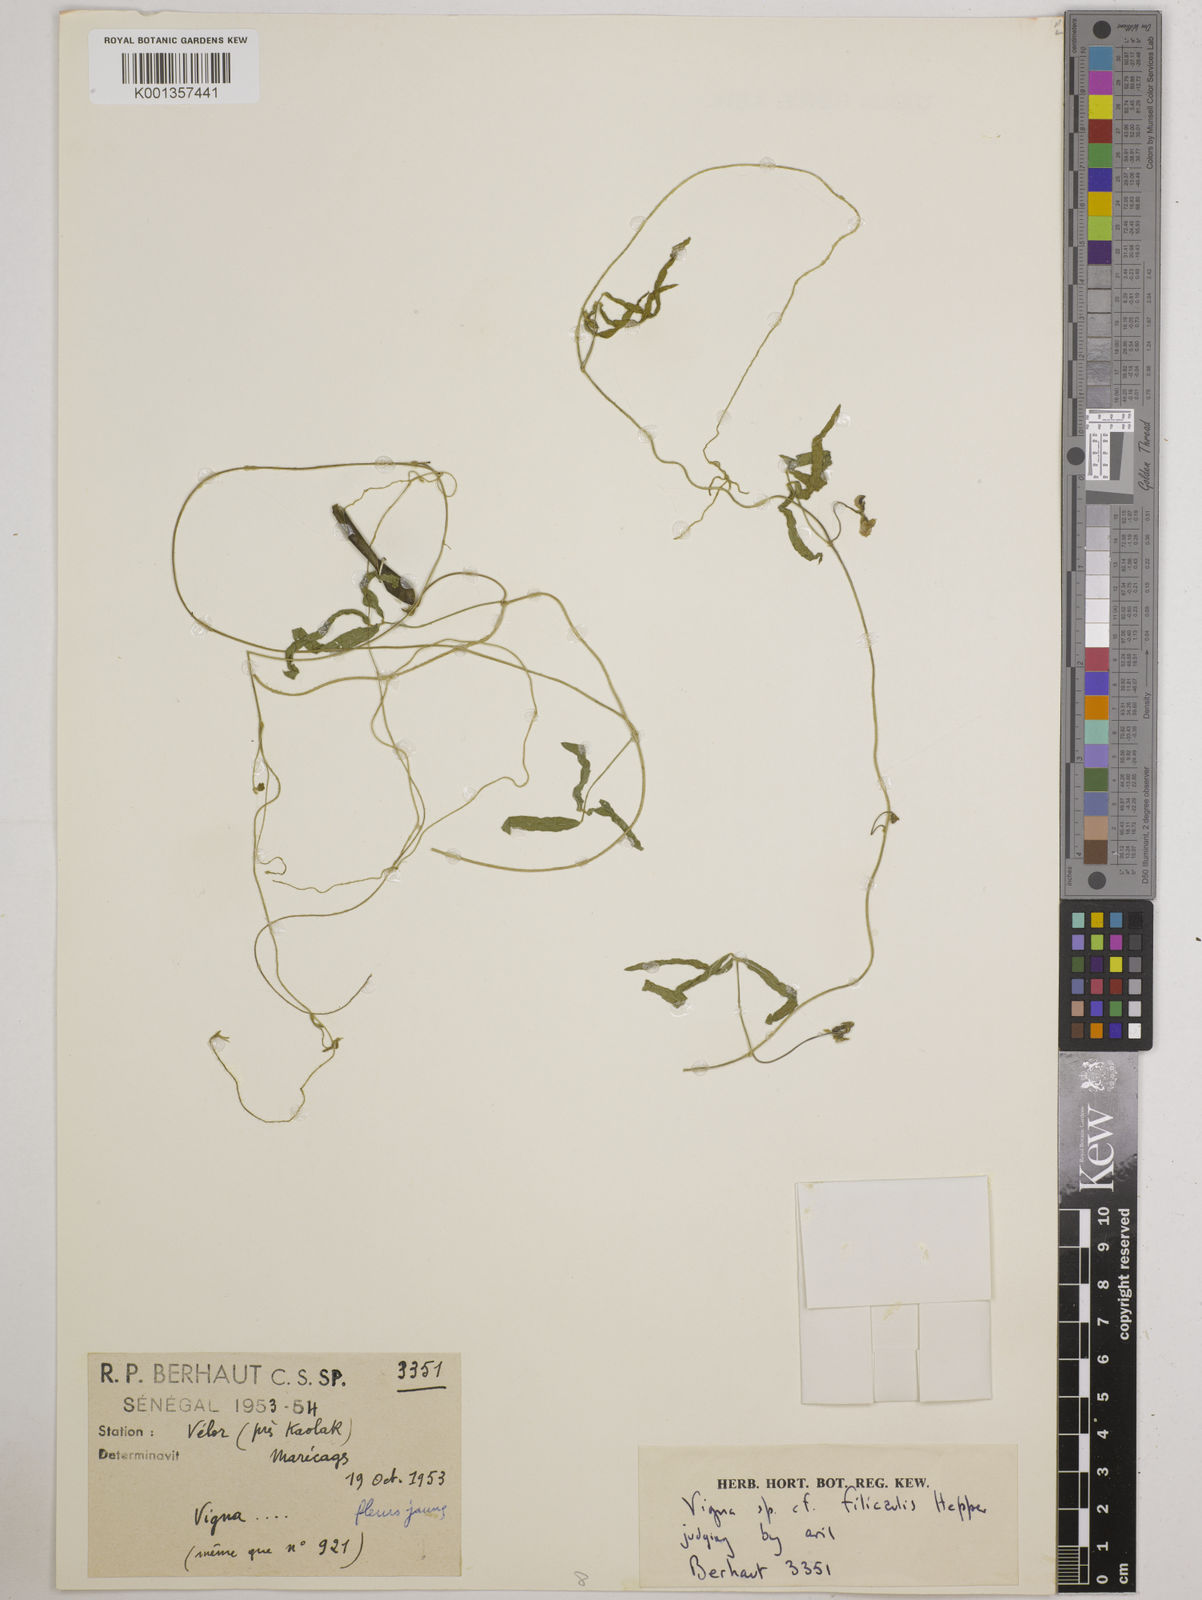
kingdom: Plantae
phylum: Tracheophyta
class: Magnoliopsida
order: Fabales
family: Fabaceae
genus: Vigna
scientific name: Vigna filicaulis
